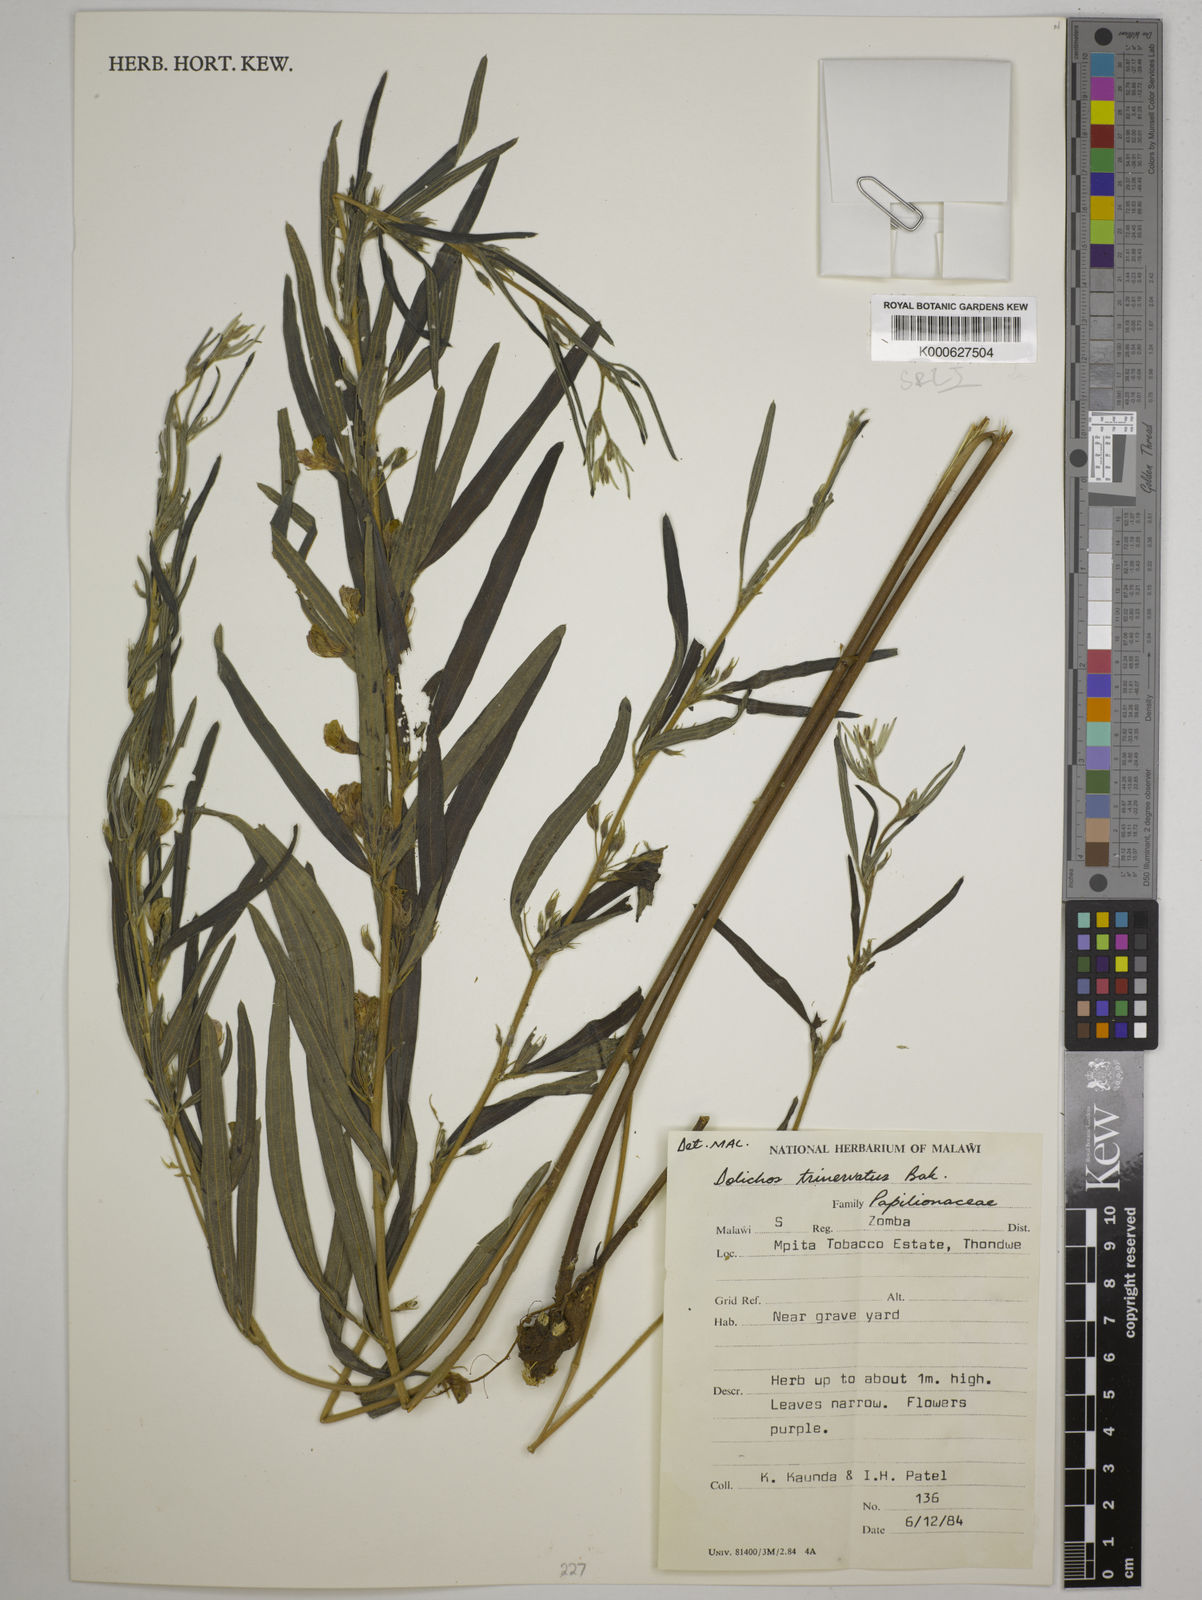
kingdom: Plantae
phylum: Tracheophyta
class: Magnoliopsida
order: Fabales
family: Fabaceae
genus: Dolichos
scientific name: Dolichos trinervatus
